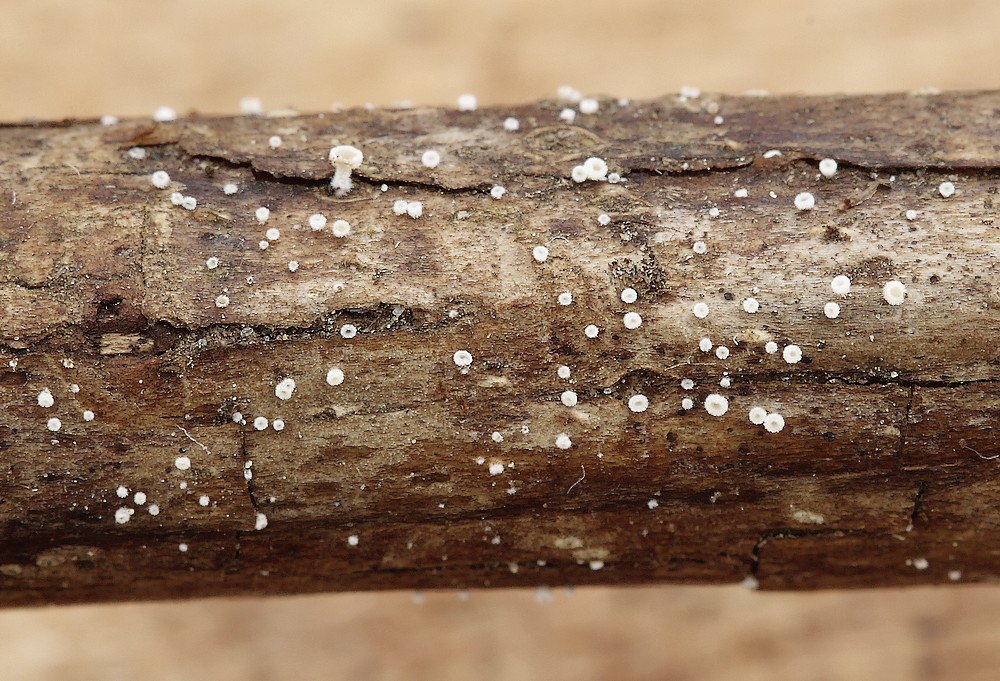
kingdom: Fungi
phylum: Ascomycota
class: Leotiomycetes
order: Helotiales
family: Hyaloscyphaceae
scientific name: Hyaloscyphaceae
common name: frynseskivefamilien
